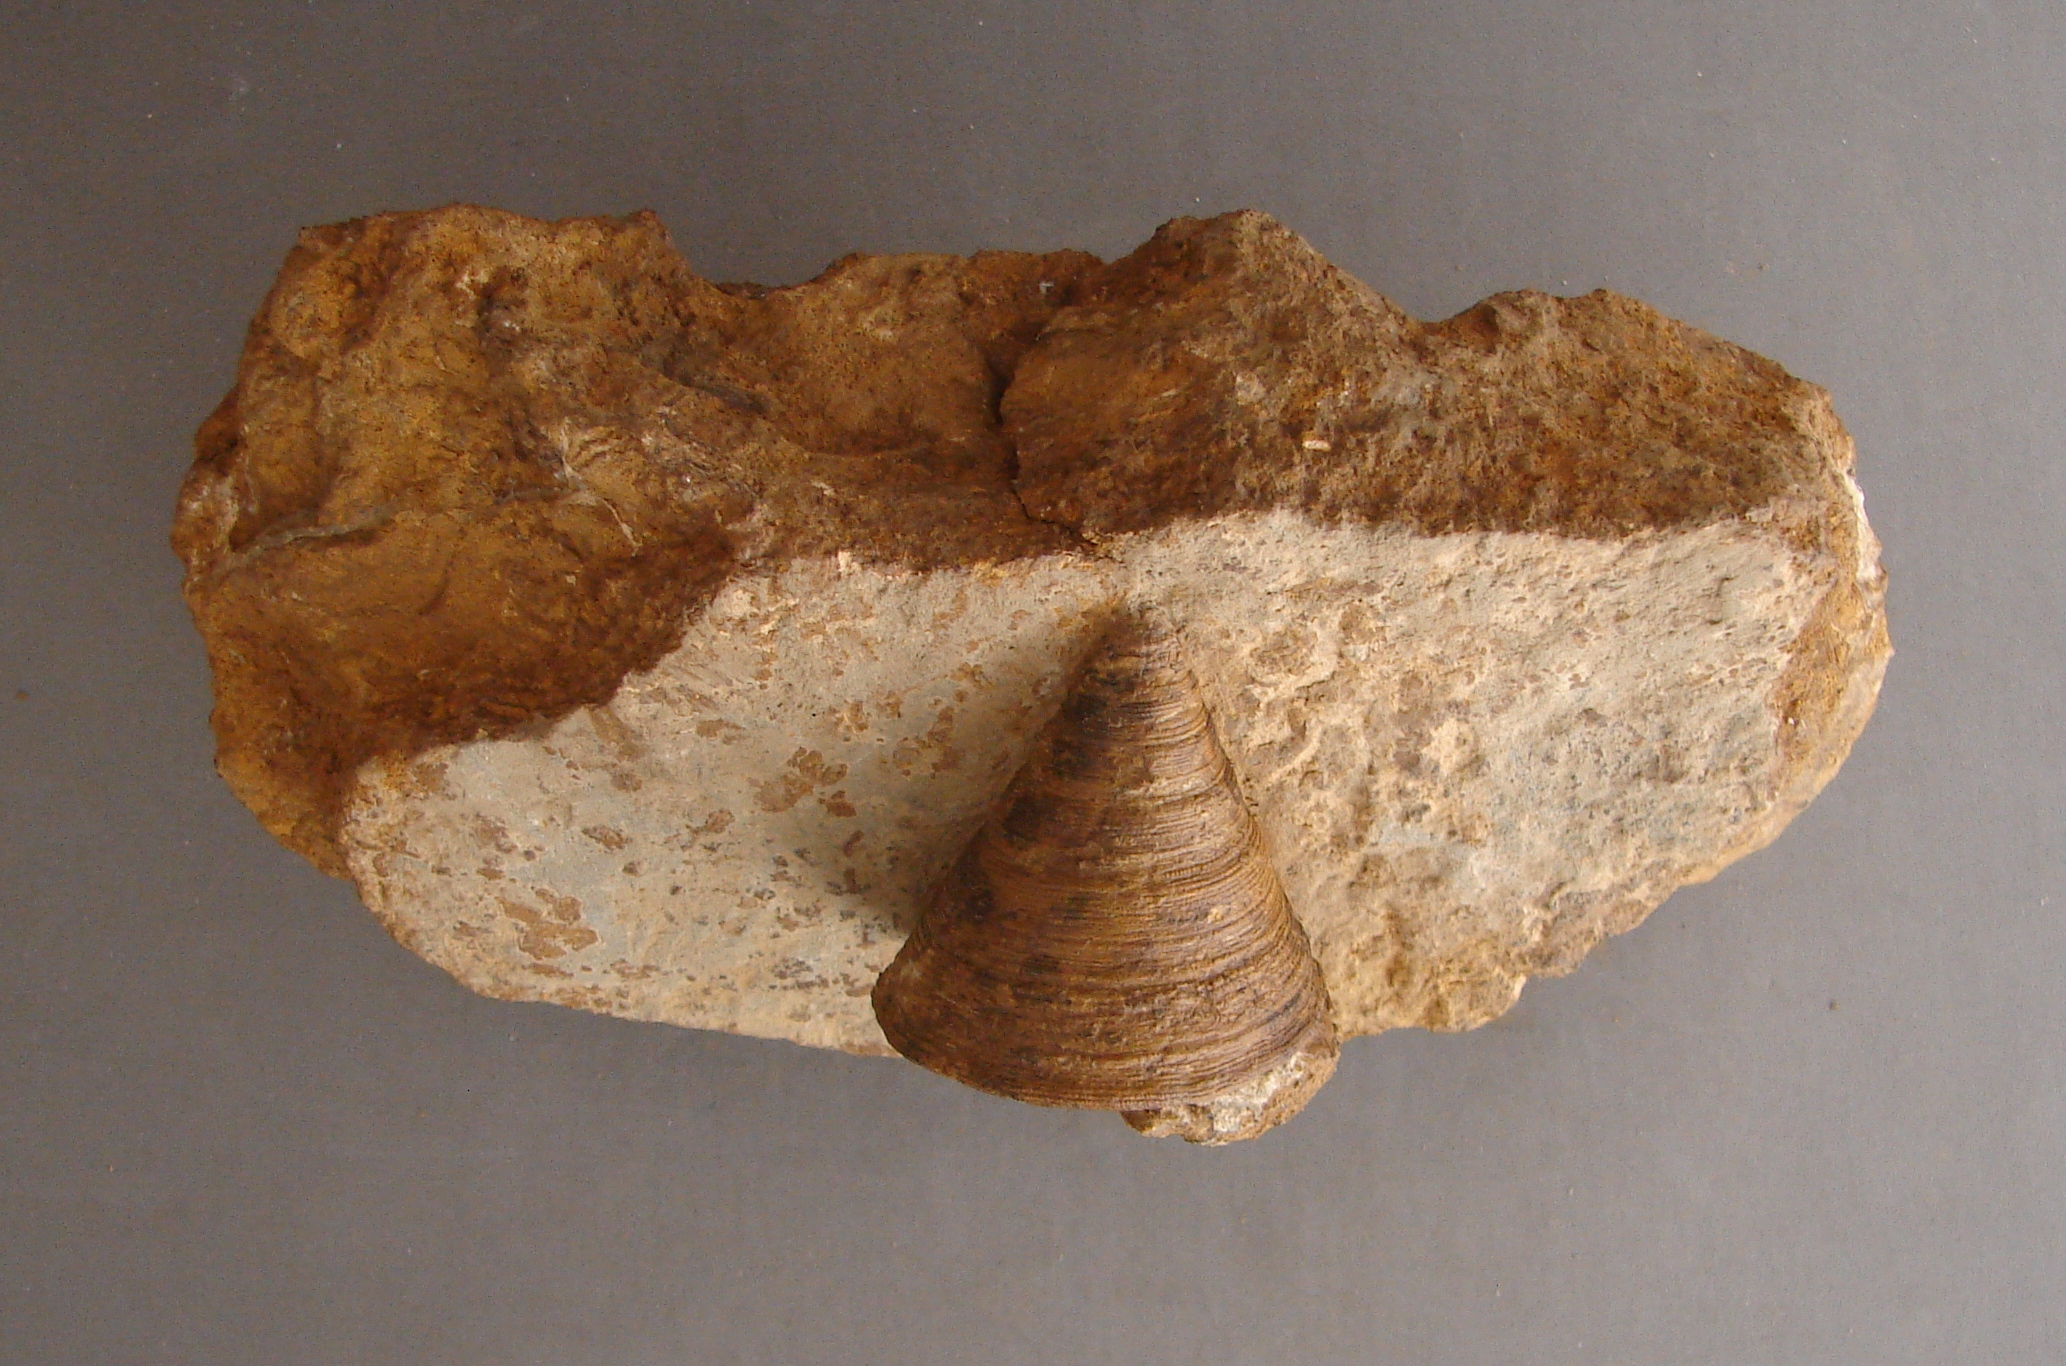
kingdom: Animalia
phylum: Mollusca
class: Gastropoda
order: Pleurotomariida
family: Pleurotomariidae
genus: Leptomaria
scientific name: Leptomaria Trochus punctatus
